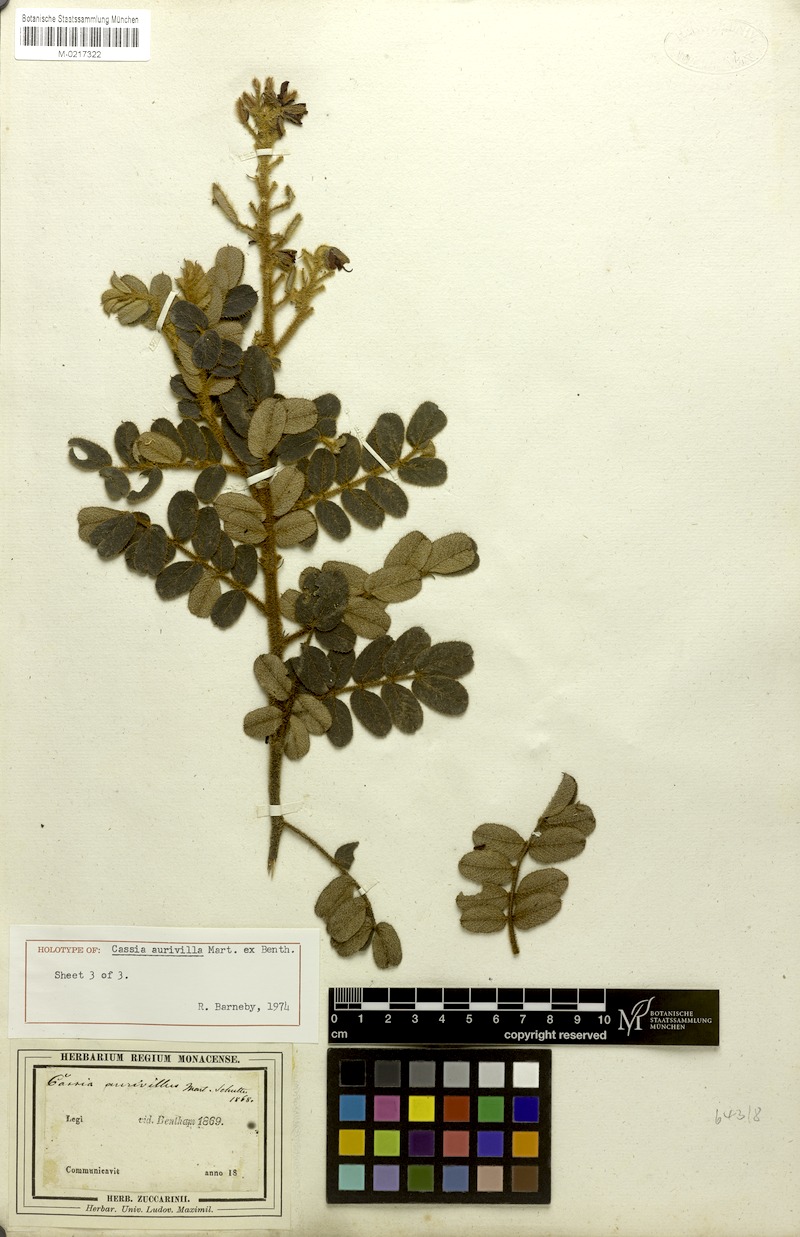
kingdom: Plantae
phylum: Tracheophyta
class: Magnoliopsida
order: Fabales
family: Fabaceae
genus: Chamaecrista
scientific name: Chamaecrista aurivilla
